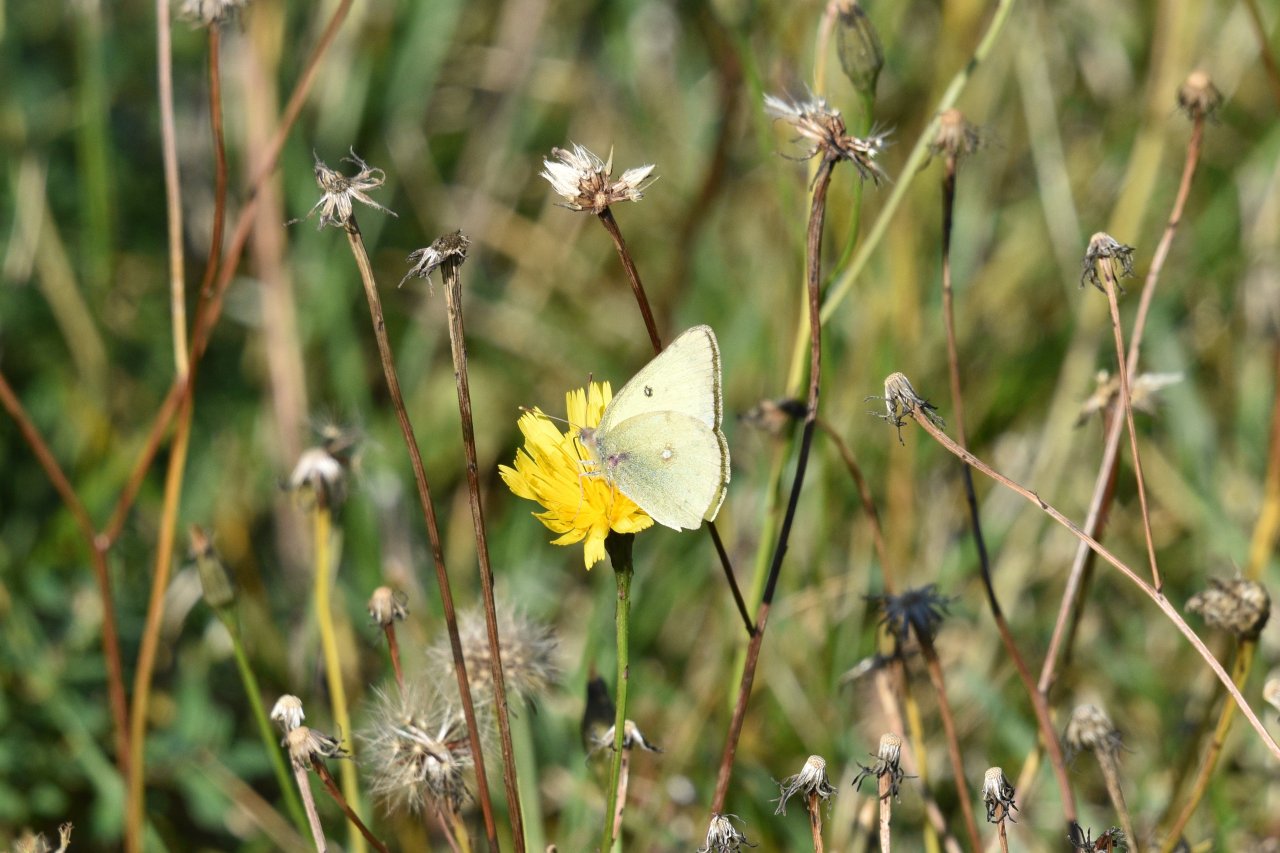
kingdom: Animalia
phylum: Arthropoda
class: Insecta
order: Lepidoptera
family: Pieridae
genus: Colias
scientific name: Colias philodice
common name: Clouded Sulphur
